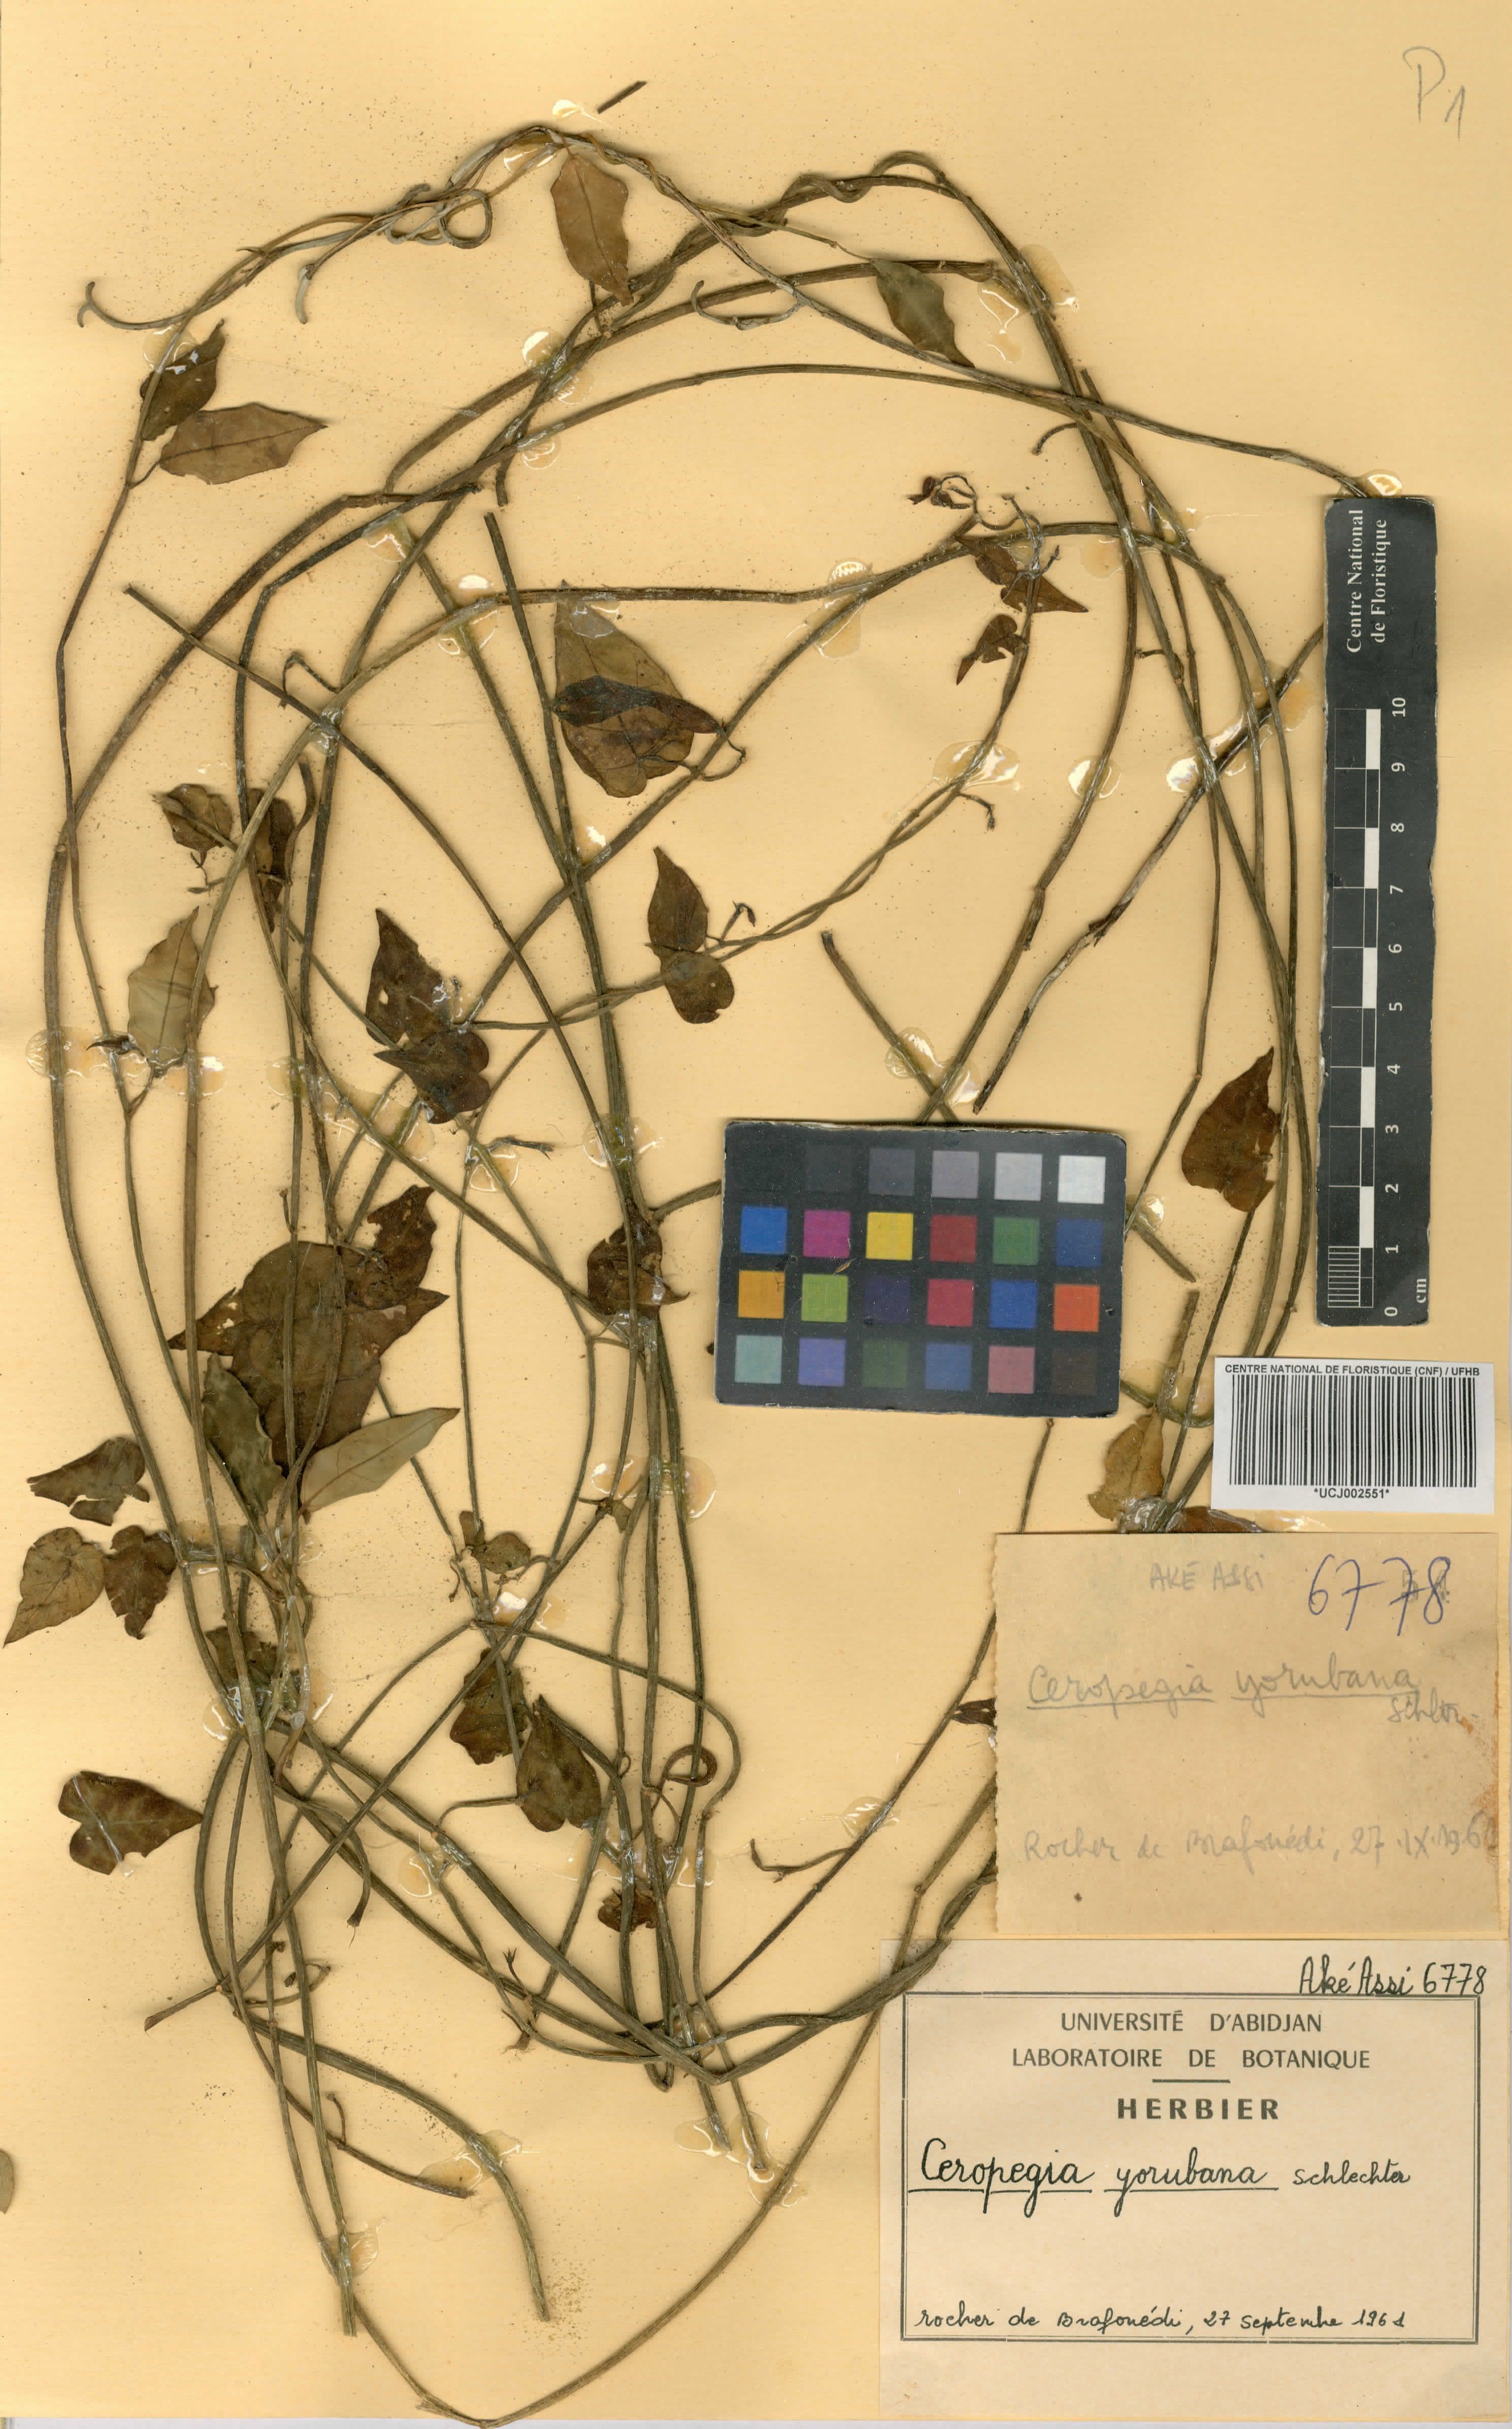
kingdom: Plantae
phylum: Tracheophyta
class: Magnoliopsida
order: Gentianales
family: Apocynaceae
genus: Ceropegia
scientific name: Ceropegia yorubana
